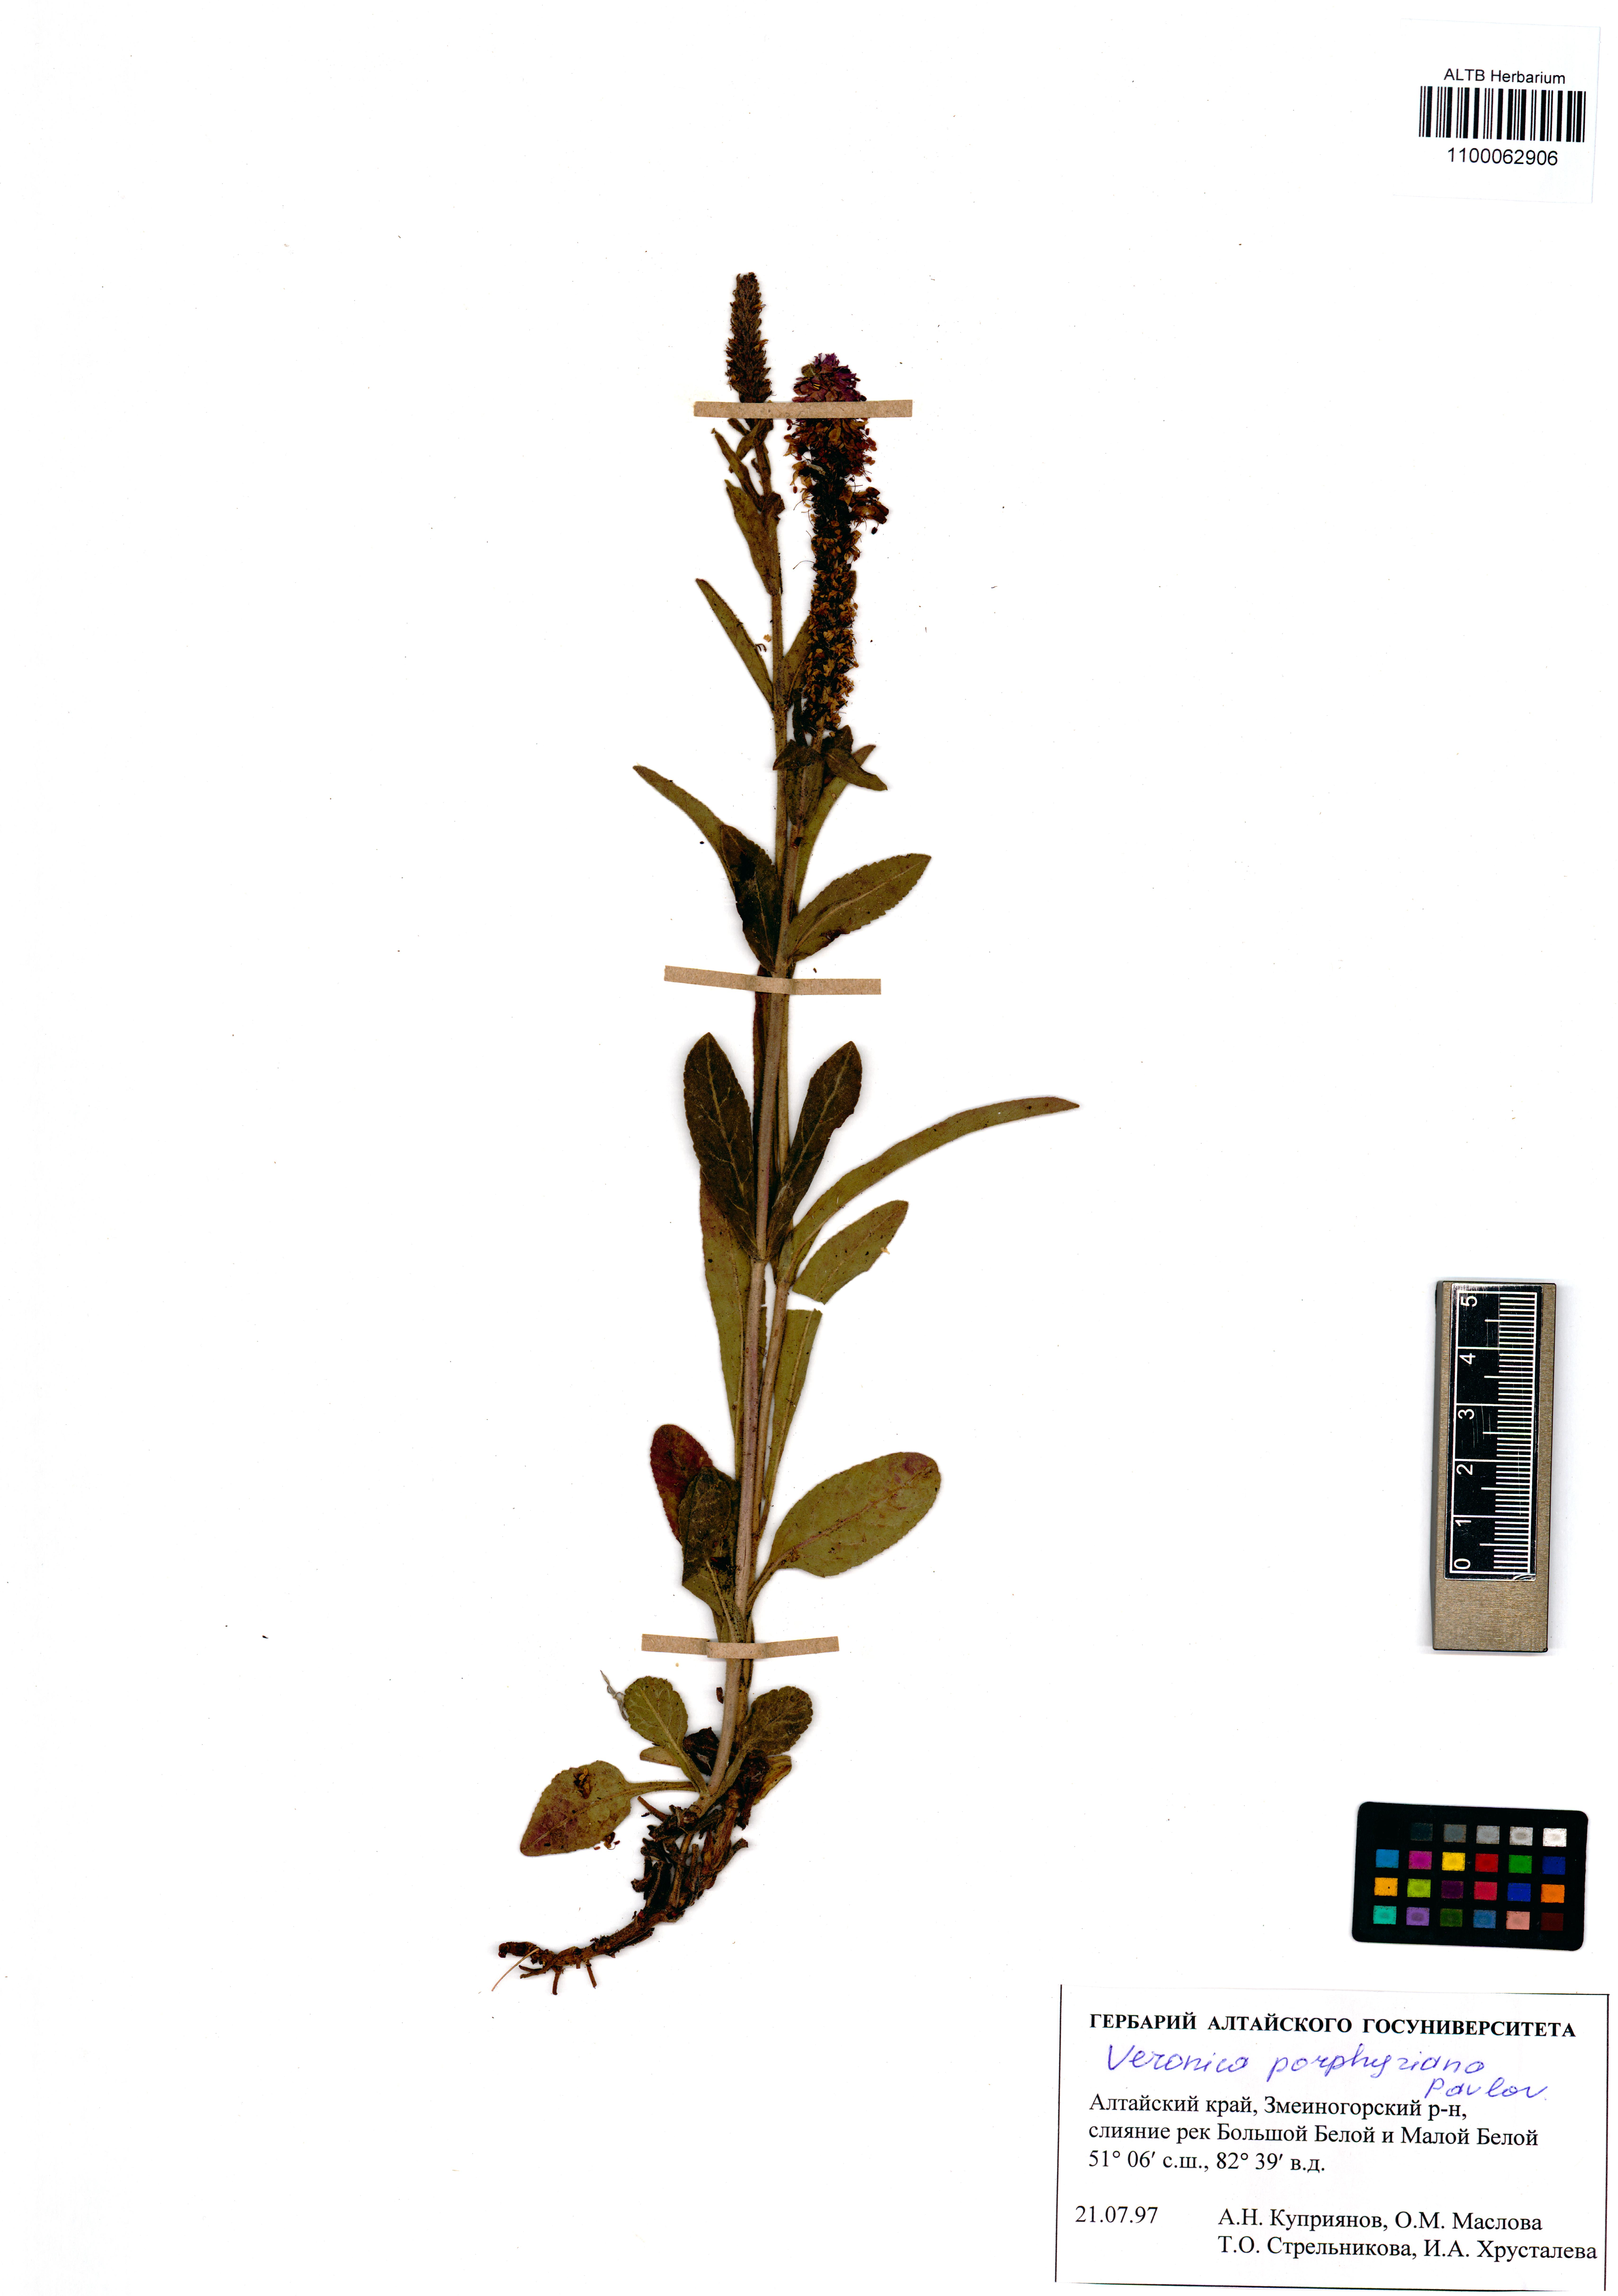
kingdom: Plantae
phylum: Tracheophyta
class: Magnoliopsida
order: Lamiales
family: Plantaginaceae
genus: Veronica
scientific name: Veronica porphyriana
